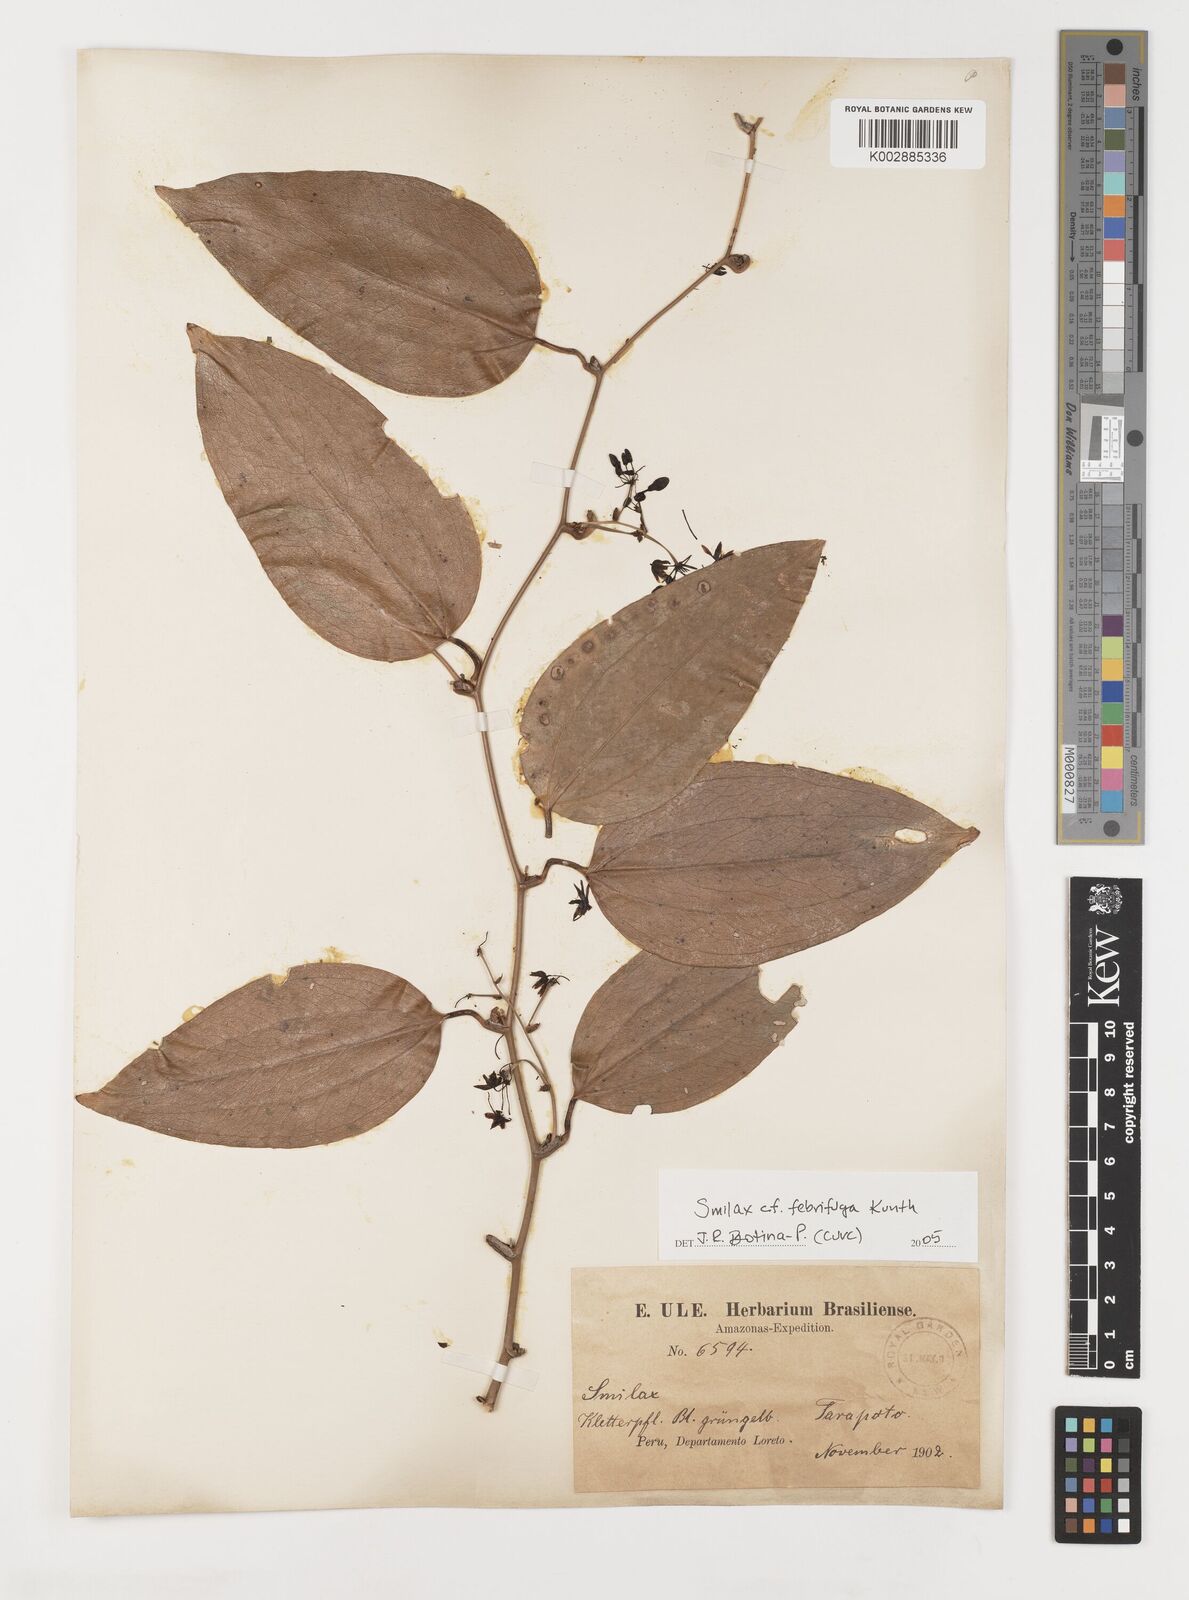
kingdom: Plantae
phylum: Tracheophyta
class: Liliopsida
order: Liliales
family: Smilacaceae
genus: Smilax
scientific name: Smilax purhampuy
